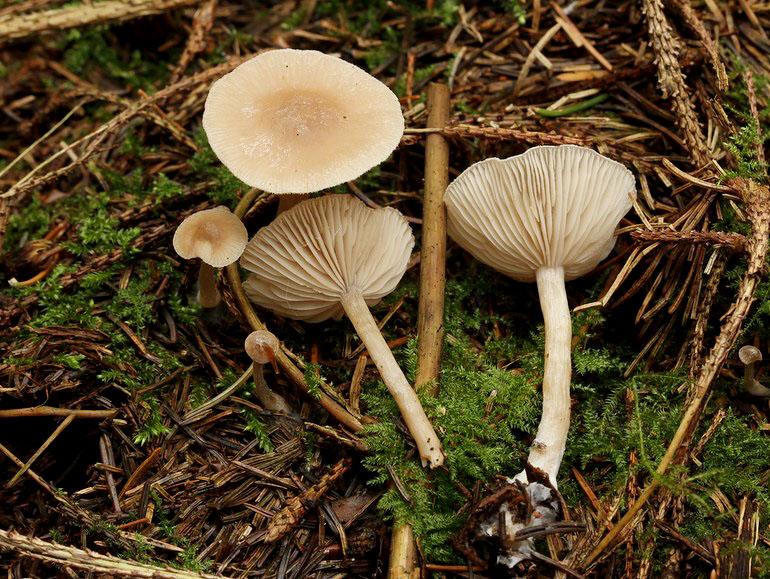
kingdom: Fungi
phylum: Basidiomycota
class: Agaricomycetes
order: Agaricales
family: Tricholomataceae
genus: Clitocybe
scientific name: Clitocybe fragrans
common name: vellugtende tragthat
